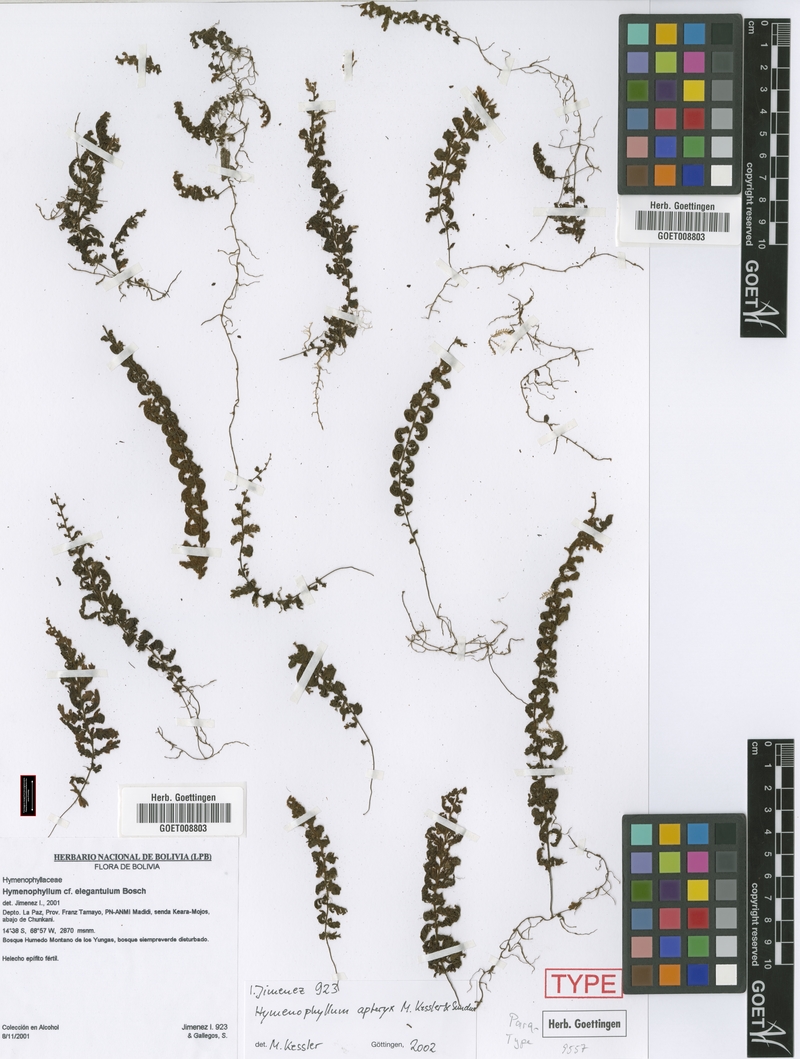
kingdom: Plantae
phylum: Tracheophyta
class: Polypodiopsida
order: Hymenophyllales
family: Hymenophyllaceae
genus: Hymenophyllum
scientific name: Hymenophyllum apteryx
